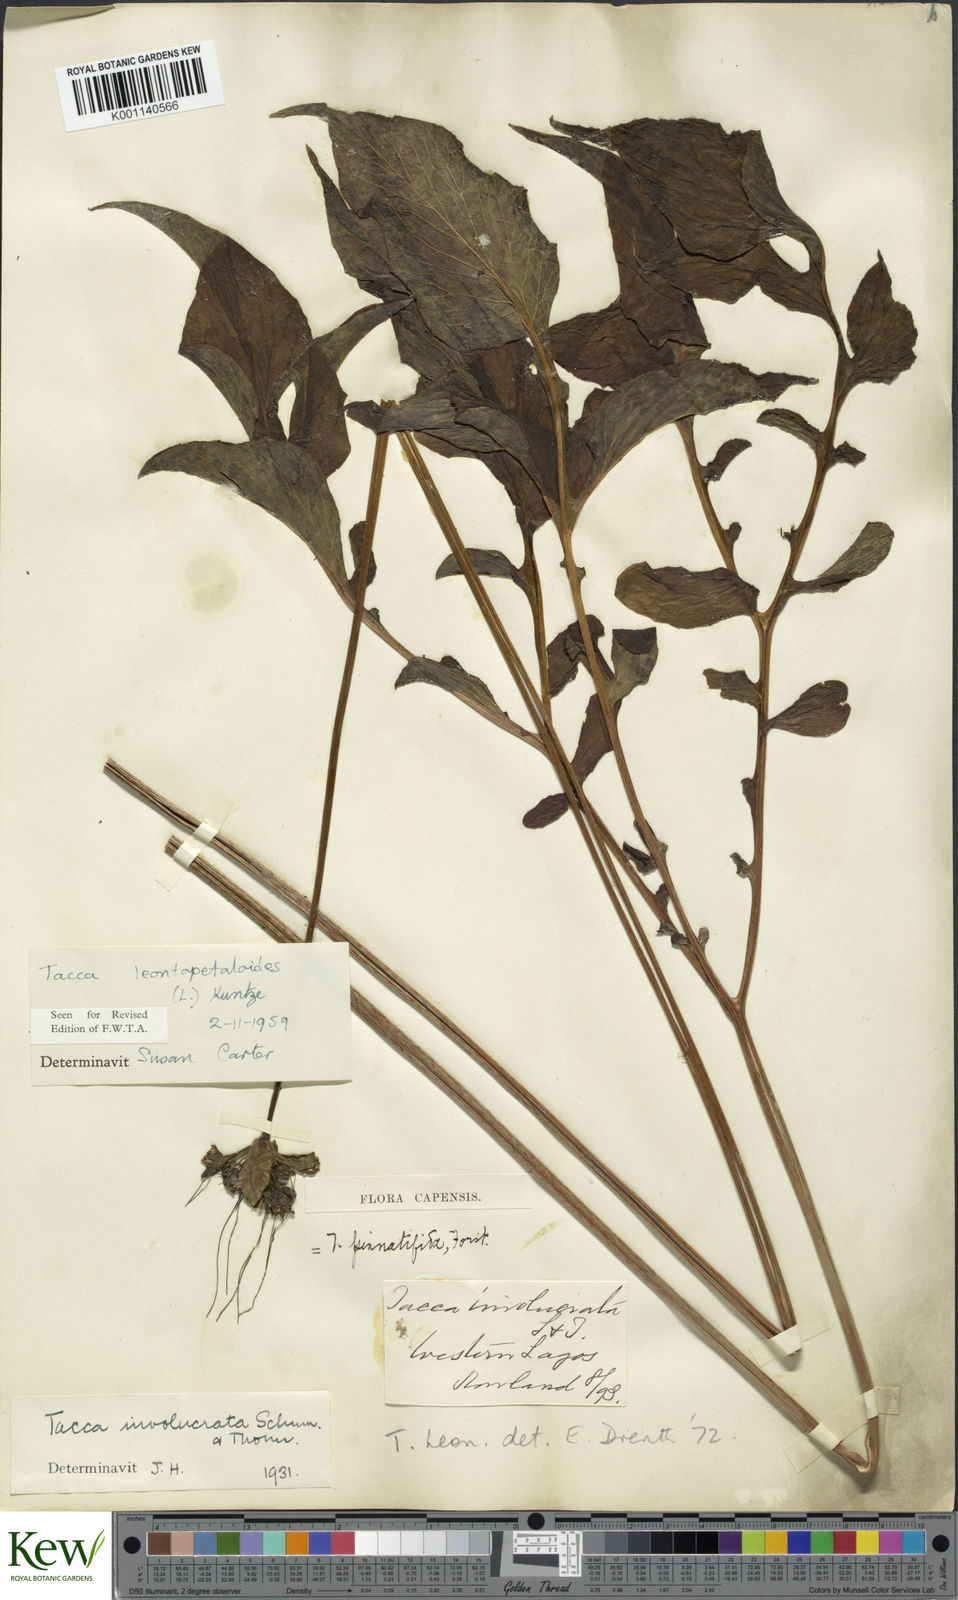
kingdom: Plantae
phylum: Tracheophyta
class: Liliopsida
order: Dioscoreales
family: Dioscoreaceae
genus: Tacca
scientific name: Tacca leontopetaloides
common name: Arrowroot
